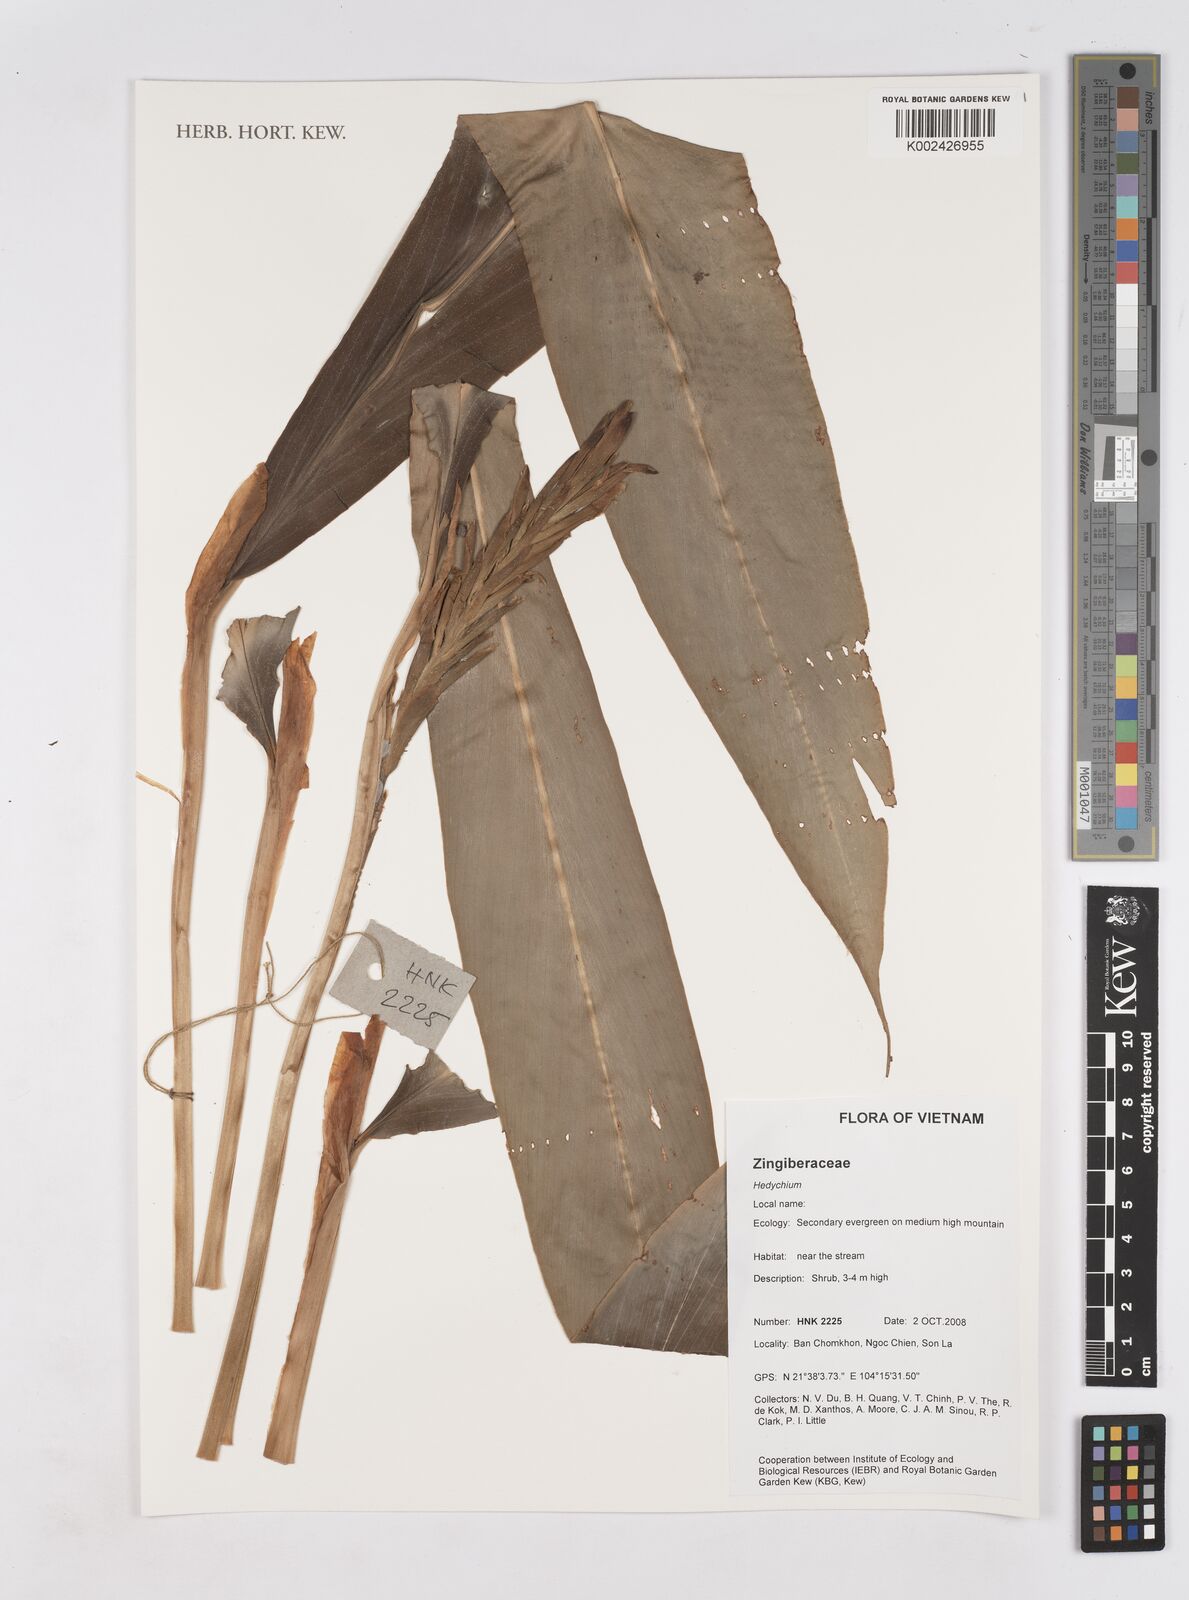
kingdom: Plantae
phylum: Tracheophyta
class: Liliopsida
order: Zingiberales
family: Zingiberaceae
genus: Hedychium
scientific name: Hedychium
